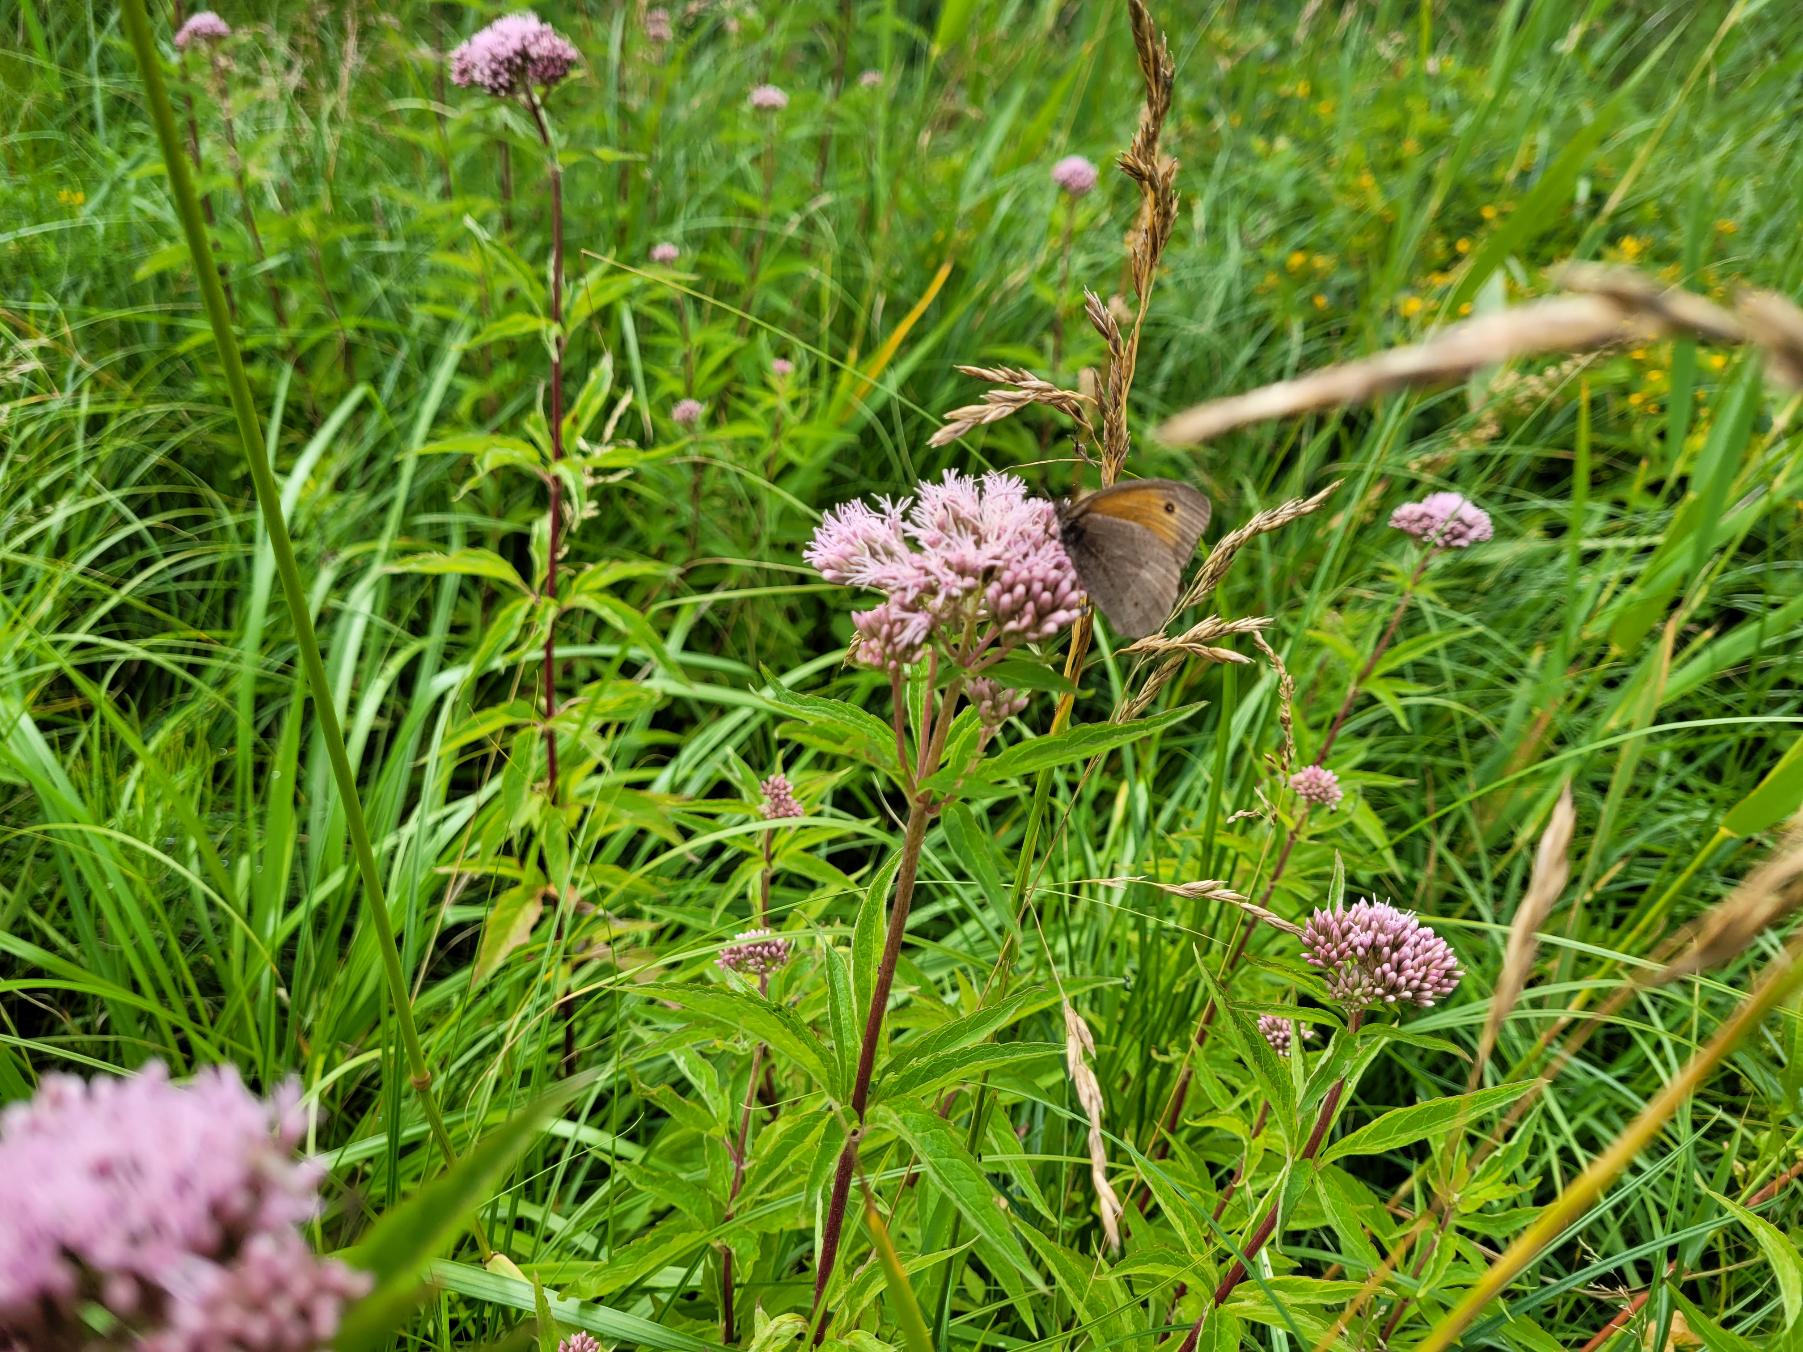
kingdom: Animalia
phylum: Arthropoda
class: Insecta
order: Lepidoptera
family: Nymphalidae
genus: Maniola
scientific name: Maniola jurtina
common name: Græsrandøje
